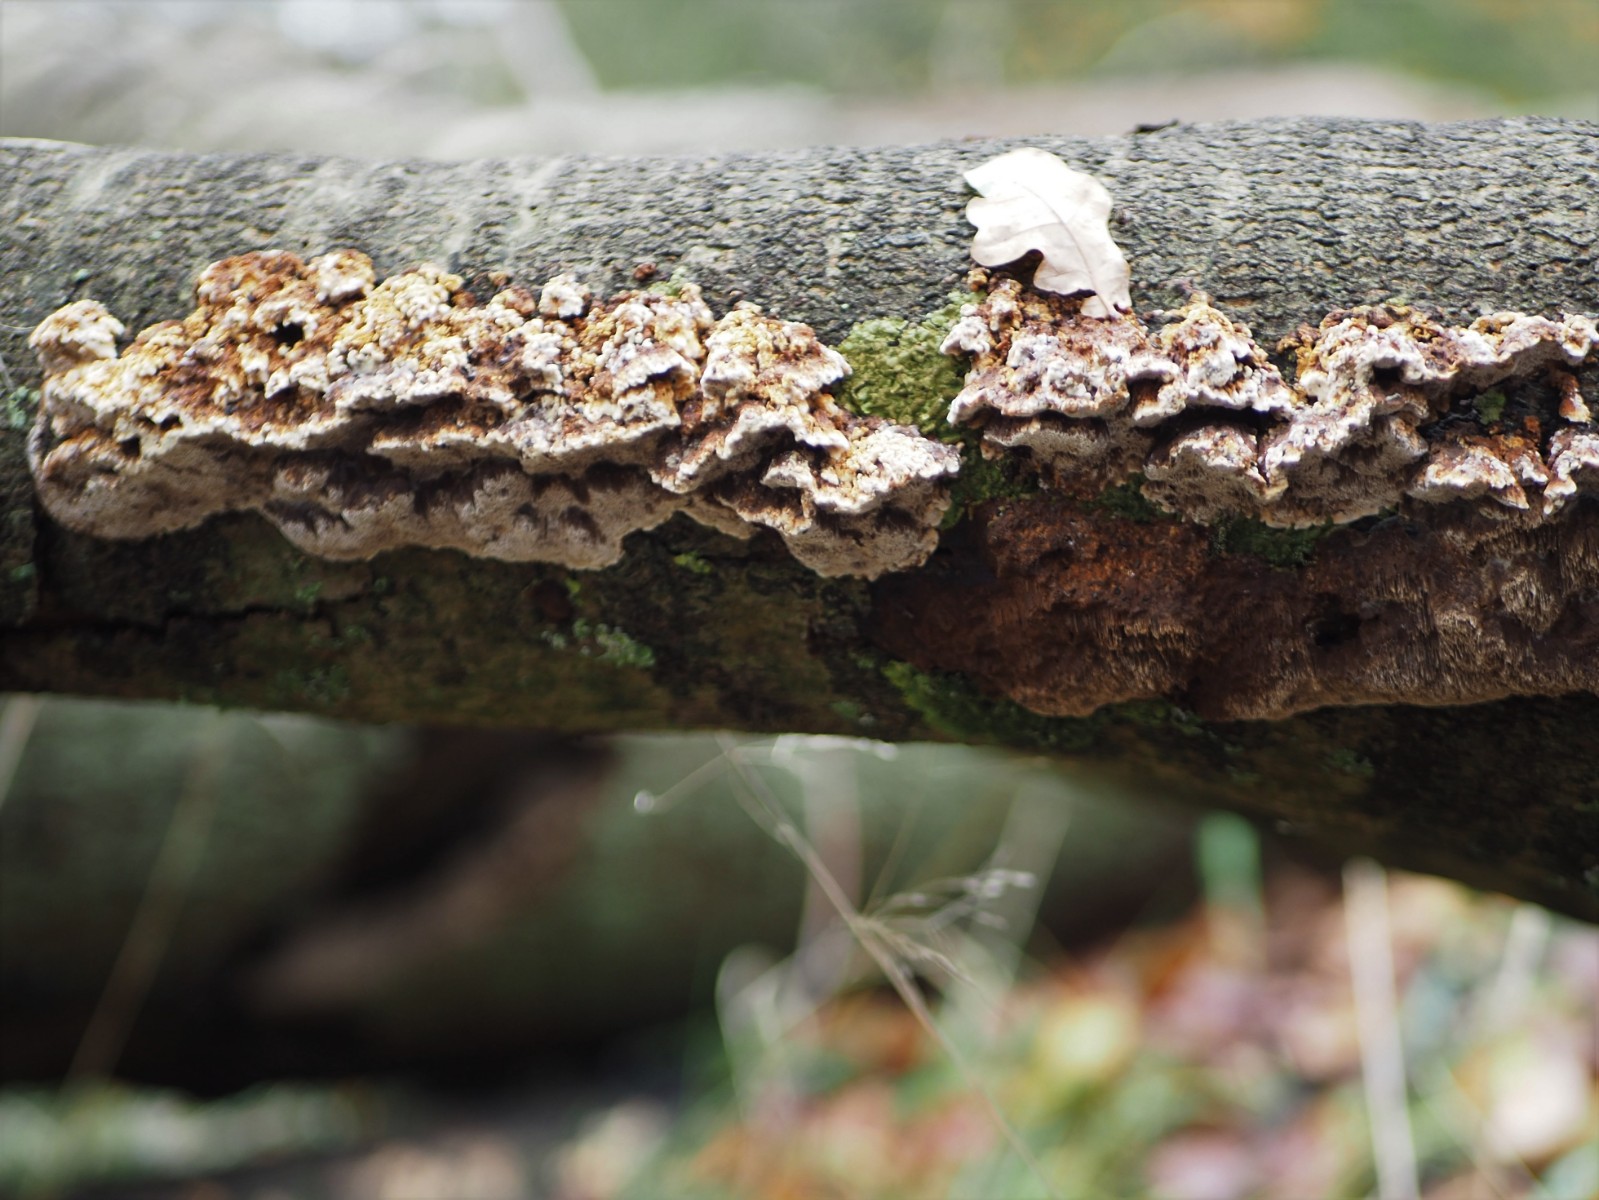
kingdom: Fungi
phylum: Basidiomycota
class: Agaricomycetes
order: Hymenochaetales
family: Hymenochaetaceae
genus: Mensularia
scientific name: Mensularia nodulosa
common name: bøge-spejlporesvamp
